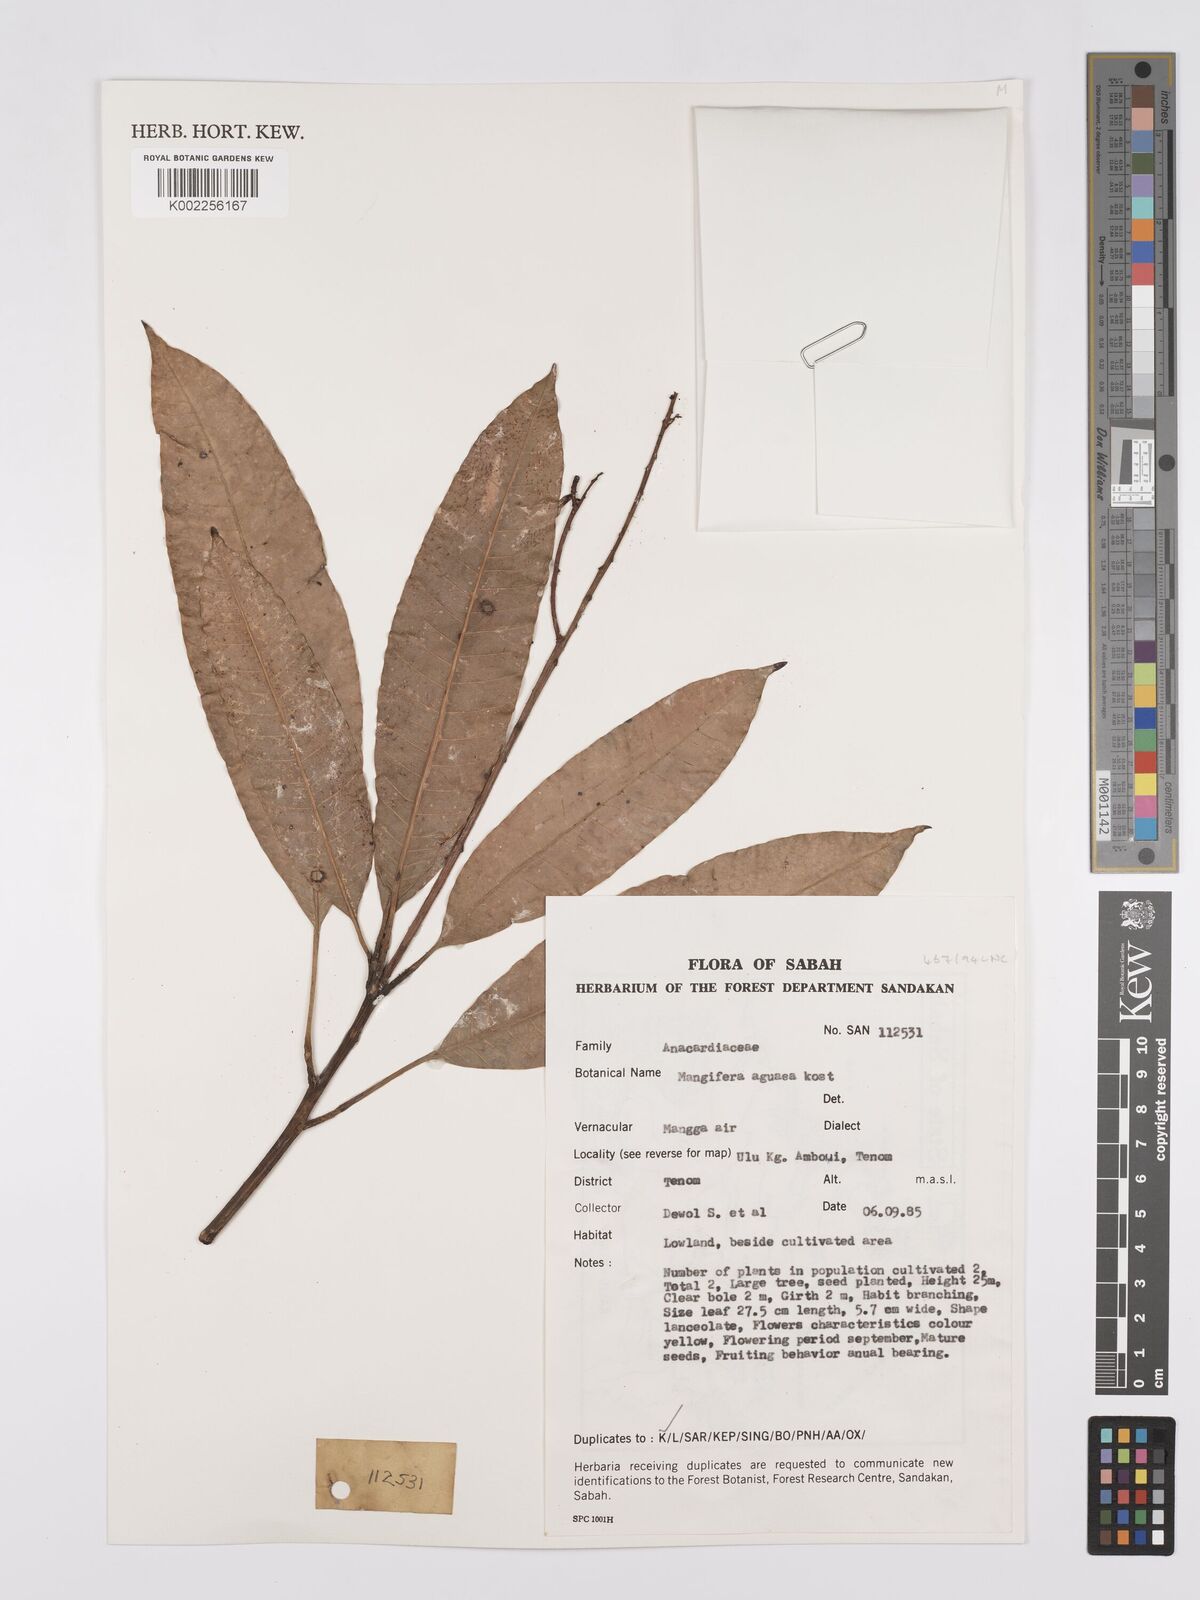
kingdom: Plantae
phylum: Tracheophyta
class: Magnoliopsida
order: Sapindales
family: Anacardiaceae
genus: Mangifera
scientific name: Mangifera laurina
